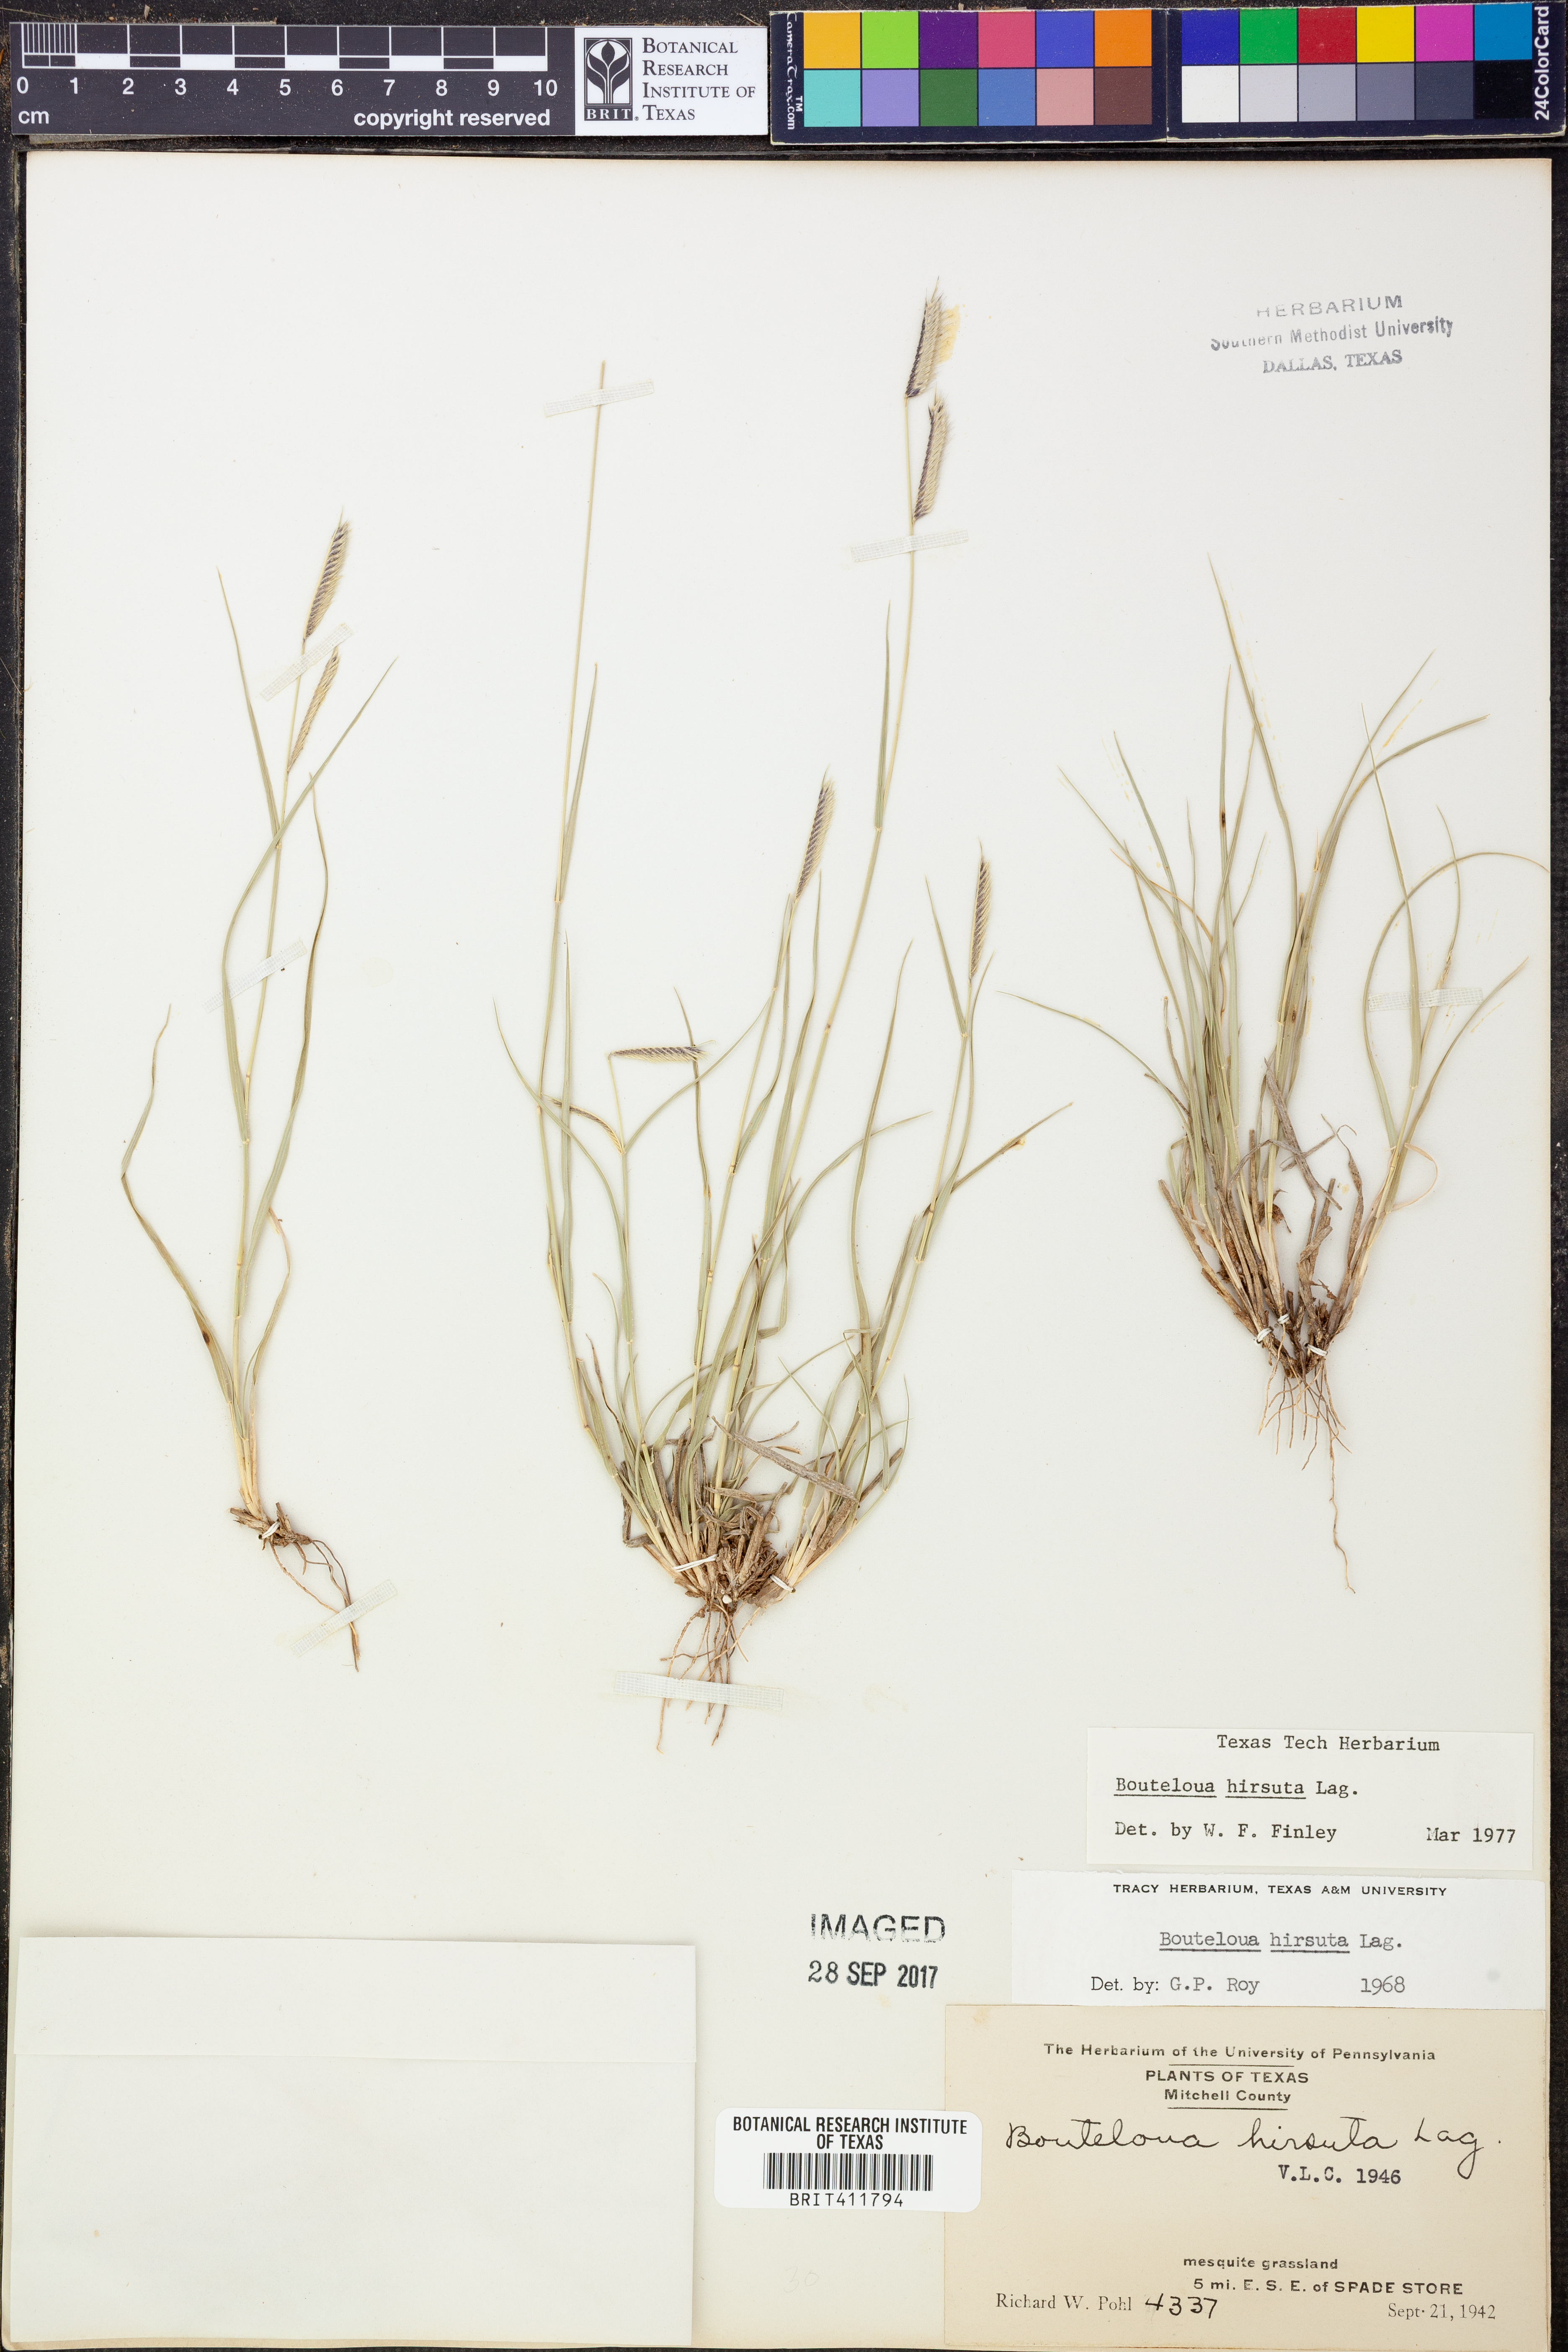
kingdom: Plantae
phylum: Tracheophyta
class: Liliopsida
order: Poales
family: Poaceae
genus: Bouteloua
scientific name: Bouteloua hirsuta
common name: Hairy grama
